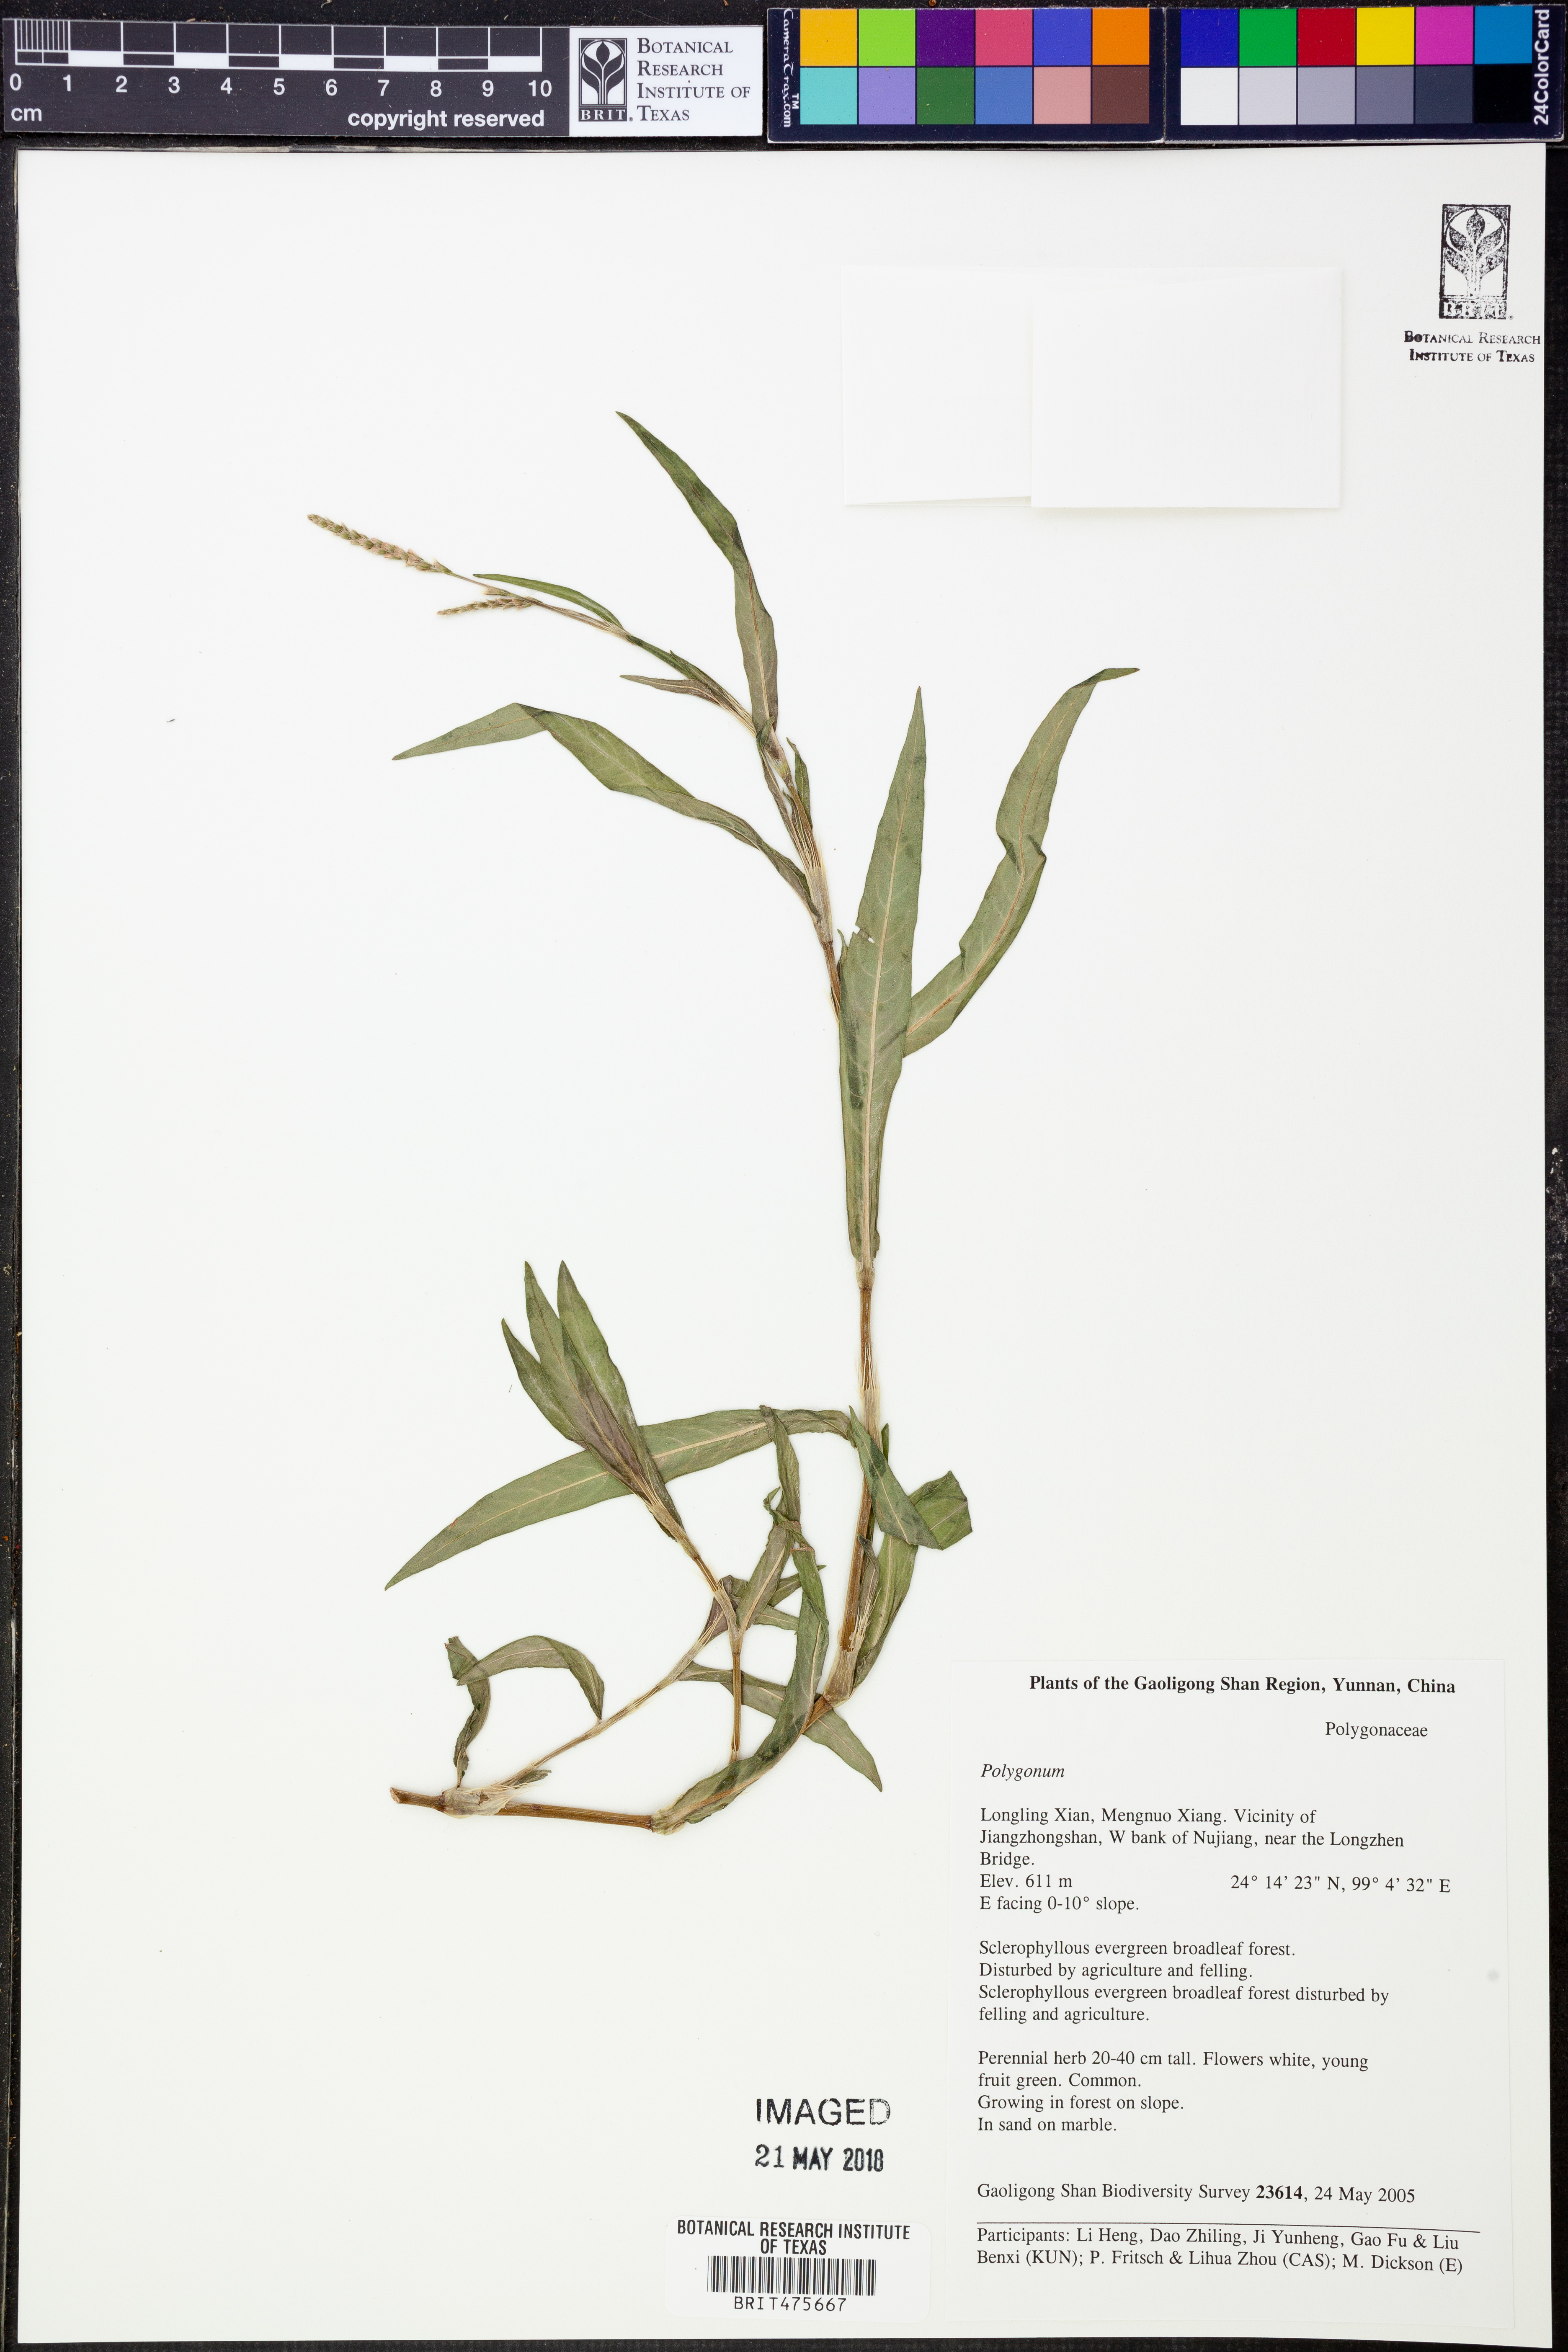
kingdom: Plantae
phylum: Tracheophyta
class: Magnoliopsida
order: Caryophyllales
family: Polygonaceae
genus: Polygonum
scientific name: Polygonum
